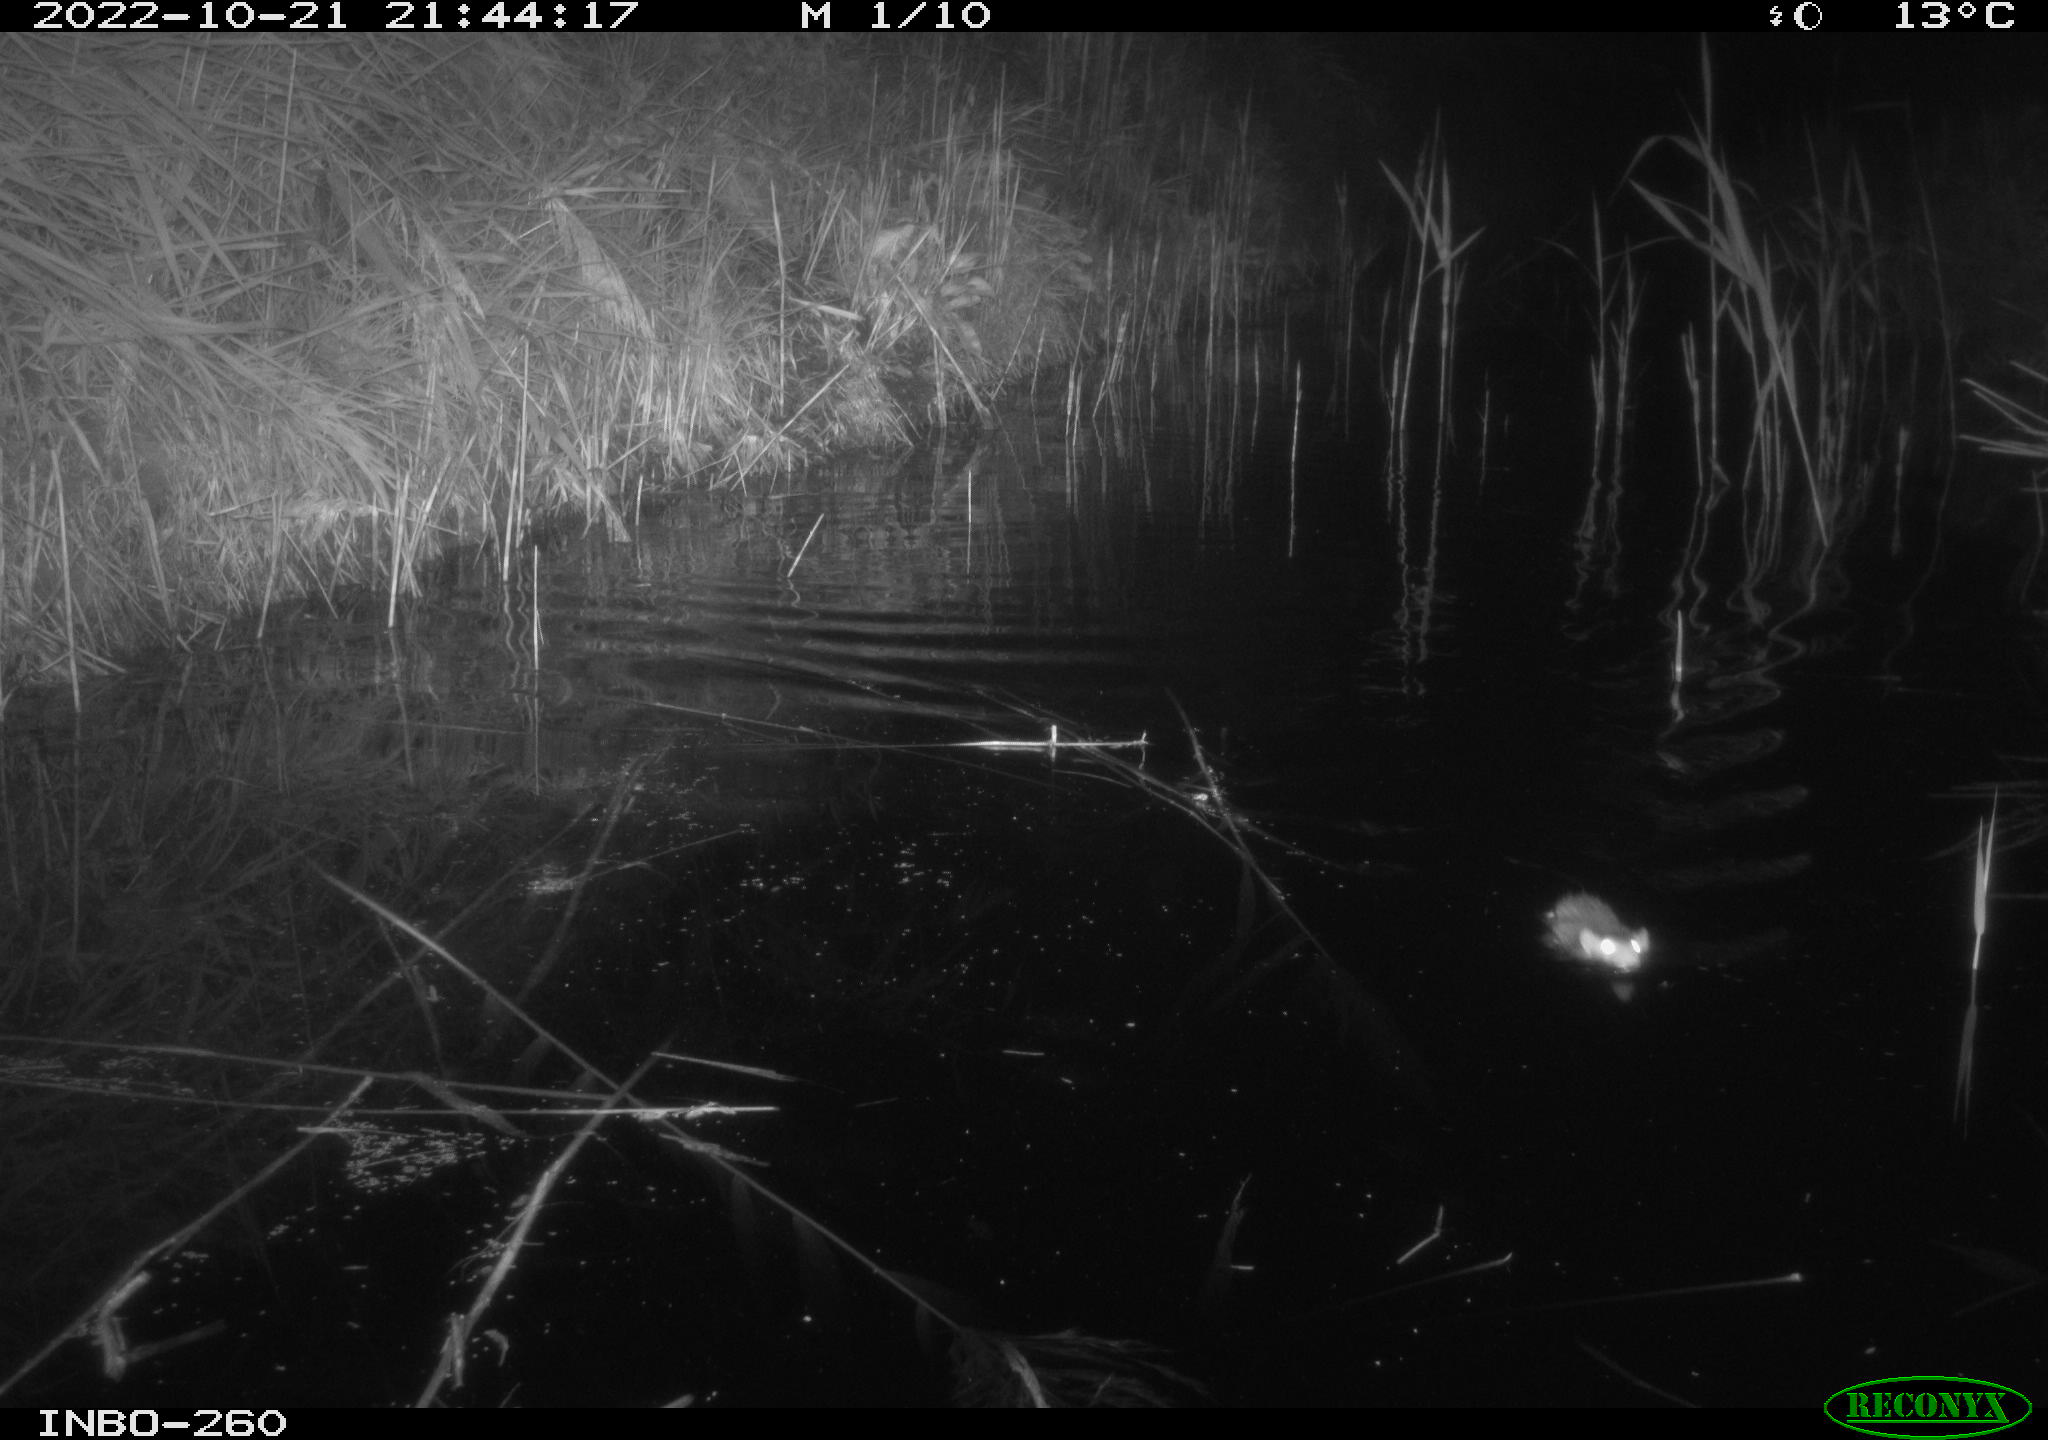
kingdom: Animalia
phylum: Chordata
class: Mammalia
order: Rodentia
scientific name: Rodentia
